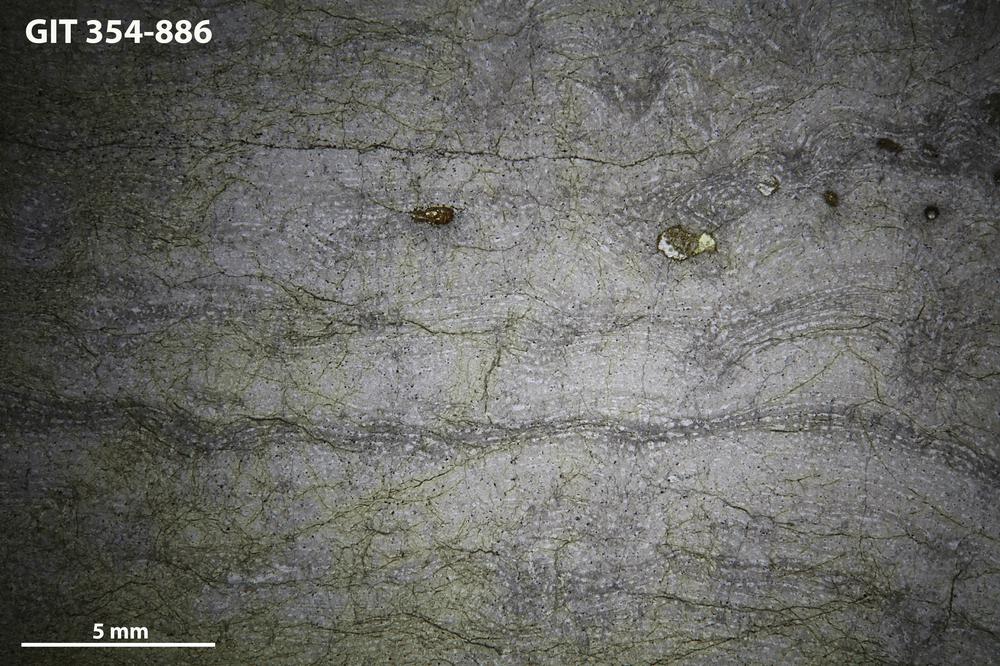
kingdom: Animalia
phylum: Porifera
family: Stromatoporidae
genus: Parallelostroma
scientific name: Parallelostroma
